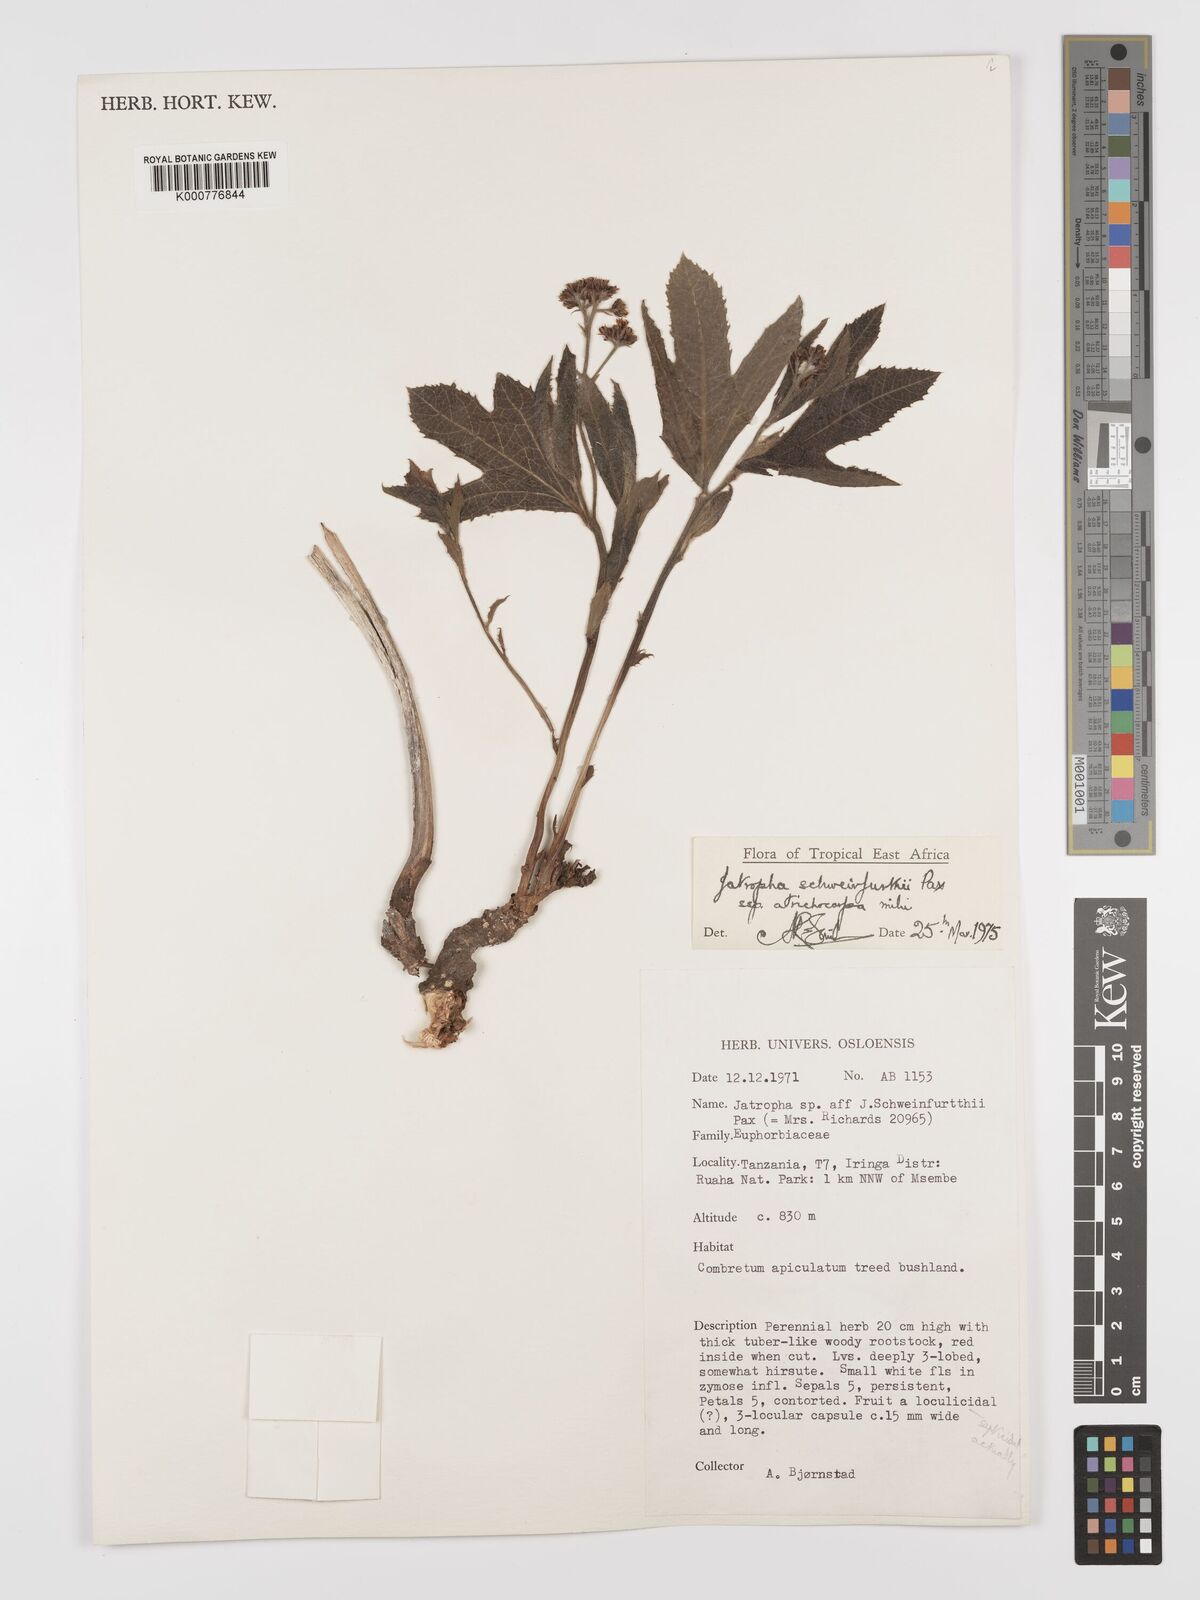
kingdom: Plantae
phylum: Tracheophyta
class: Magnoliopsida
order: Malpighiales
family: Euphorbiaceae
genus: Jatropha
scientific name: Jatropha schweinfurthii
